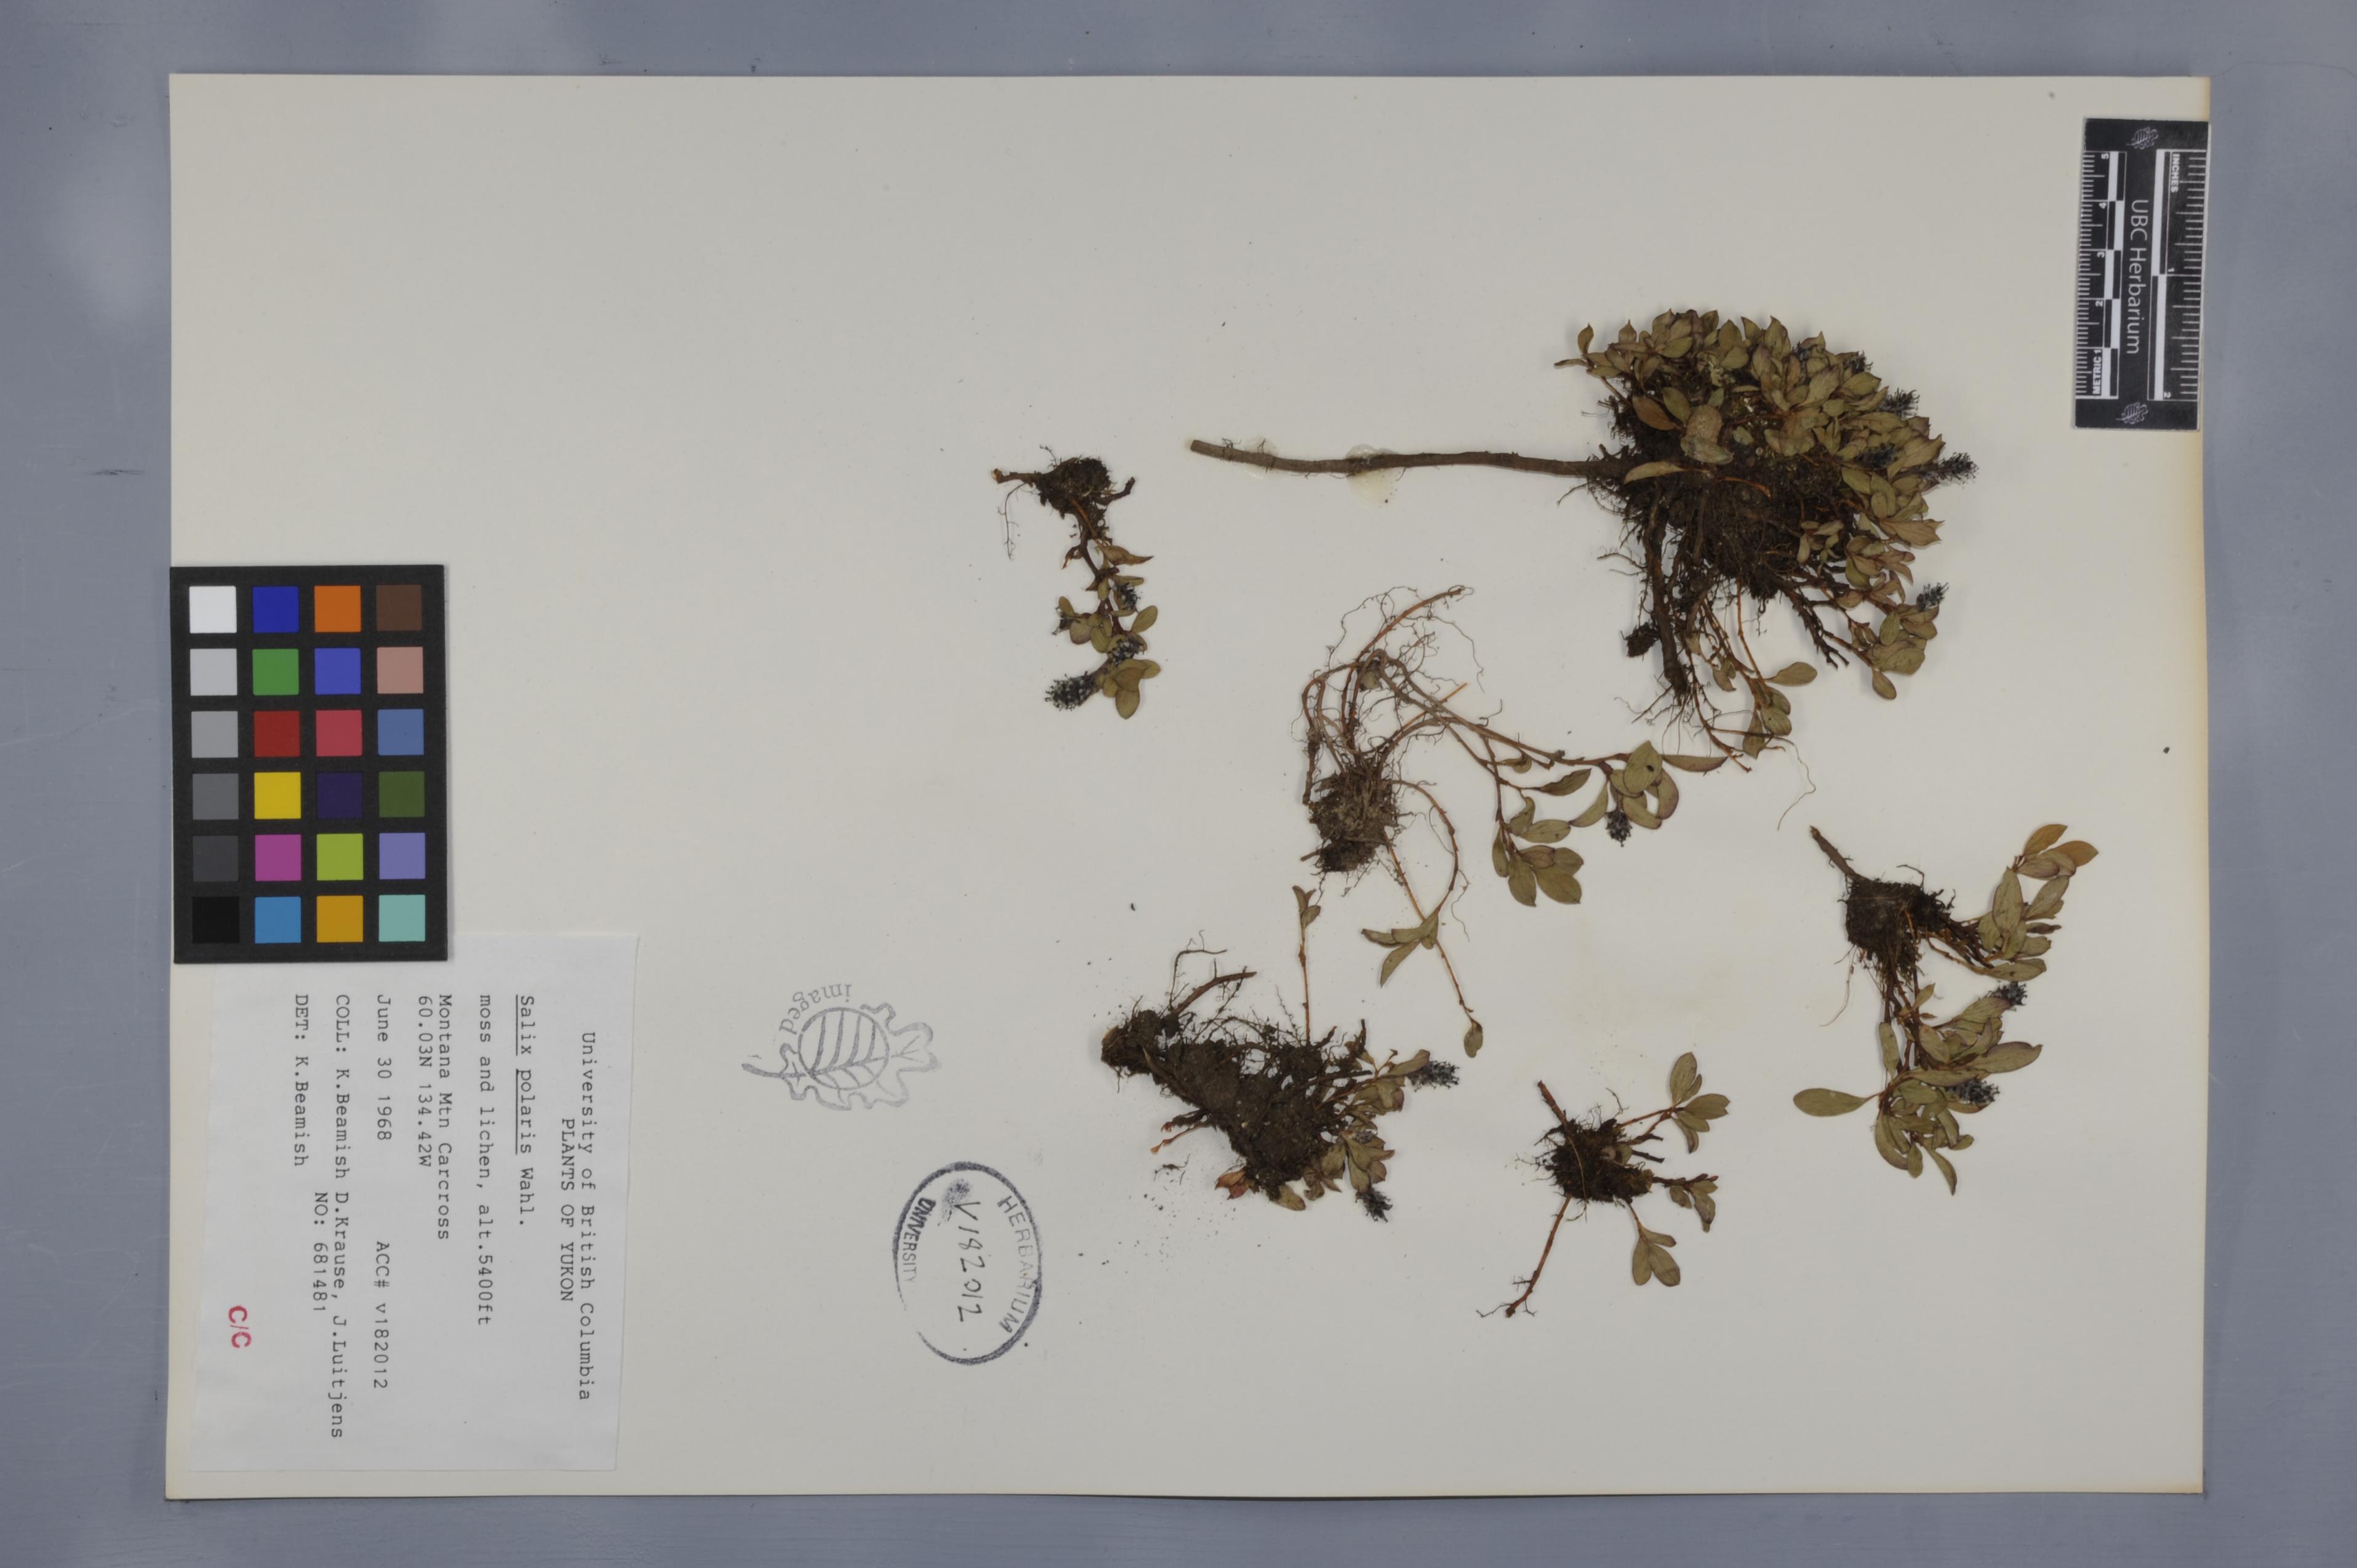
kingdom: Plantae
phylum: Tracheophyta
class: Magnoliopsida
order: Malpighiales
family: Salicaceae
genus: Salix
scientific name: Salix polaris
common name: Polar willow
